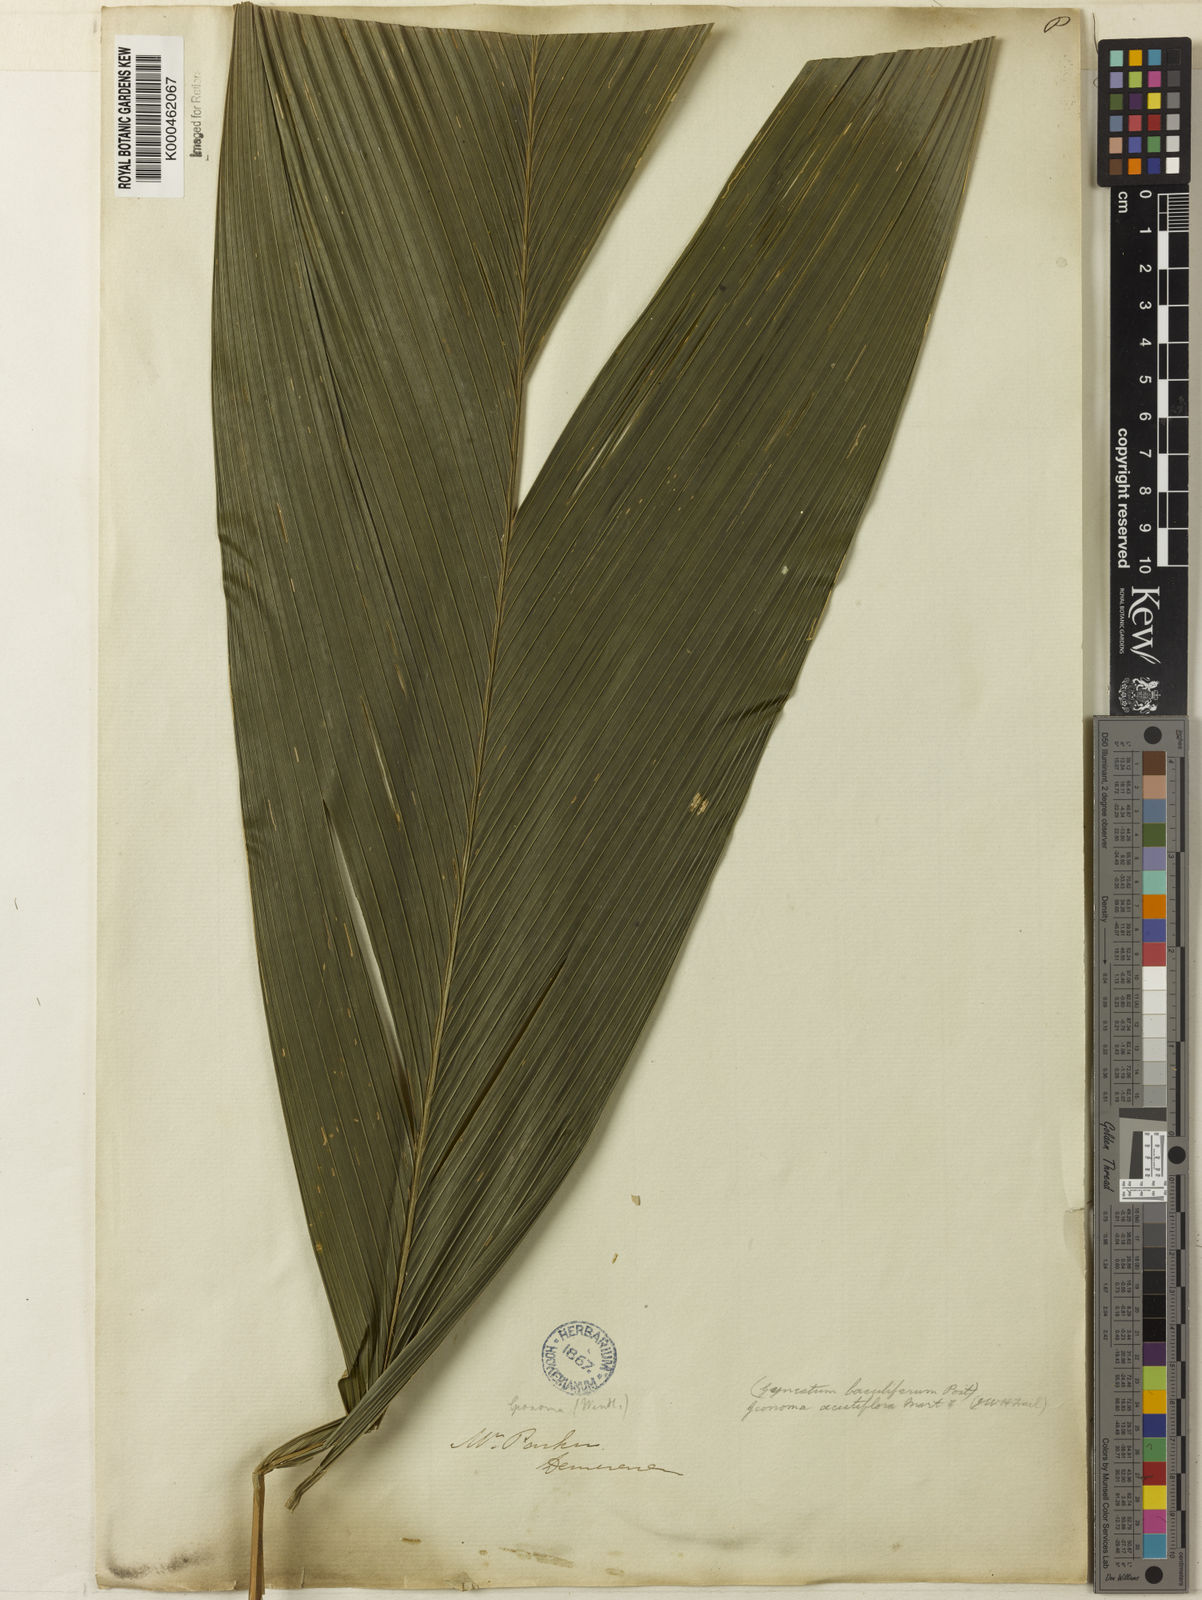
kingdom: Plantae
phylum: Tracheophyta
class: Liliopsida
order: Arecales
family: Arecaceae
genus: Geonoma
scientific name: Geonoma baculifera
